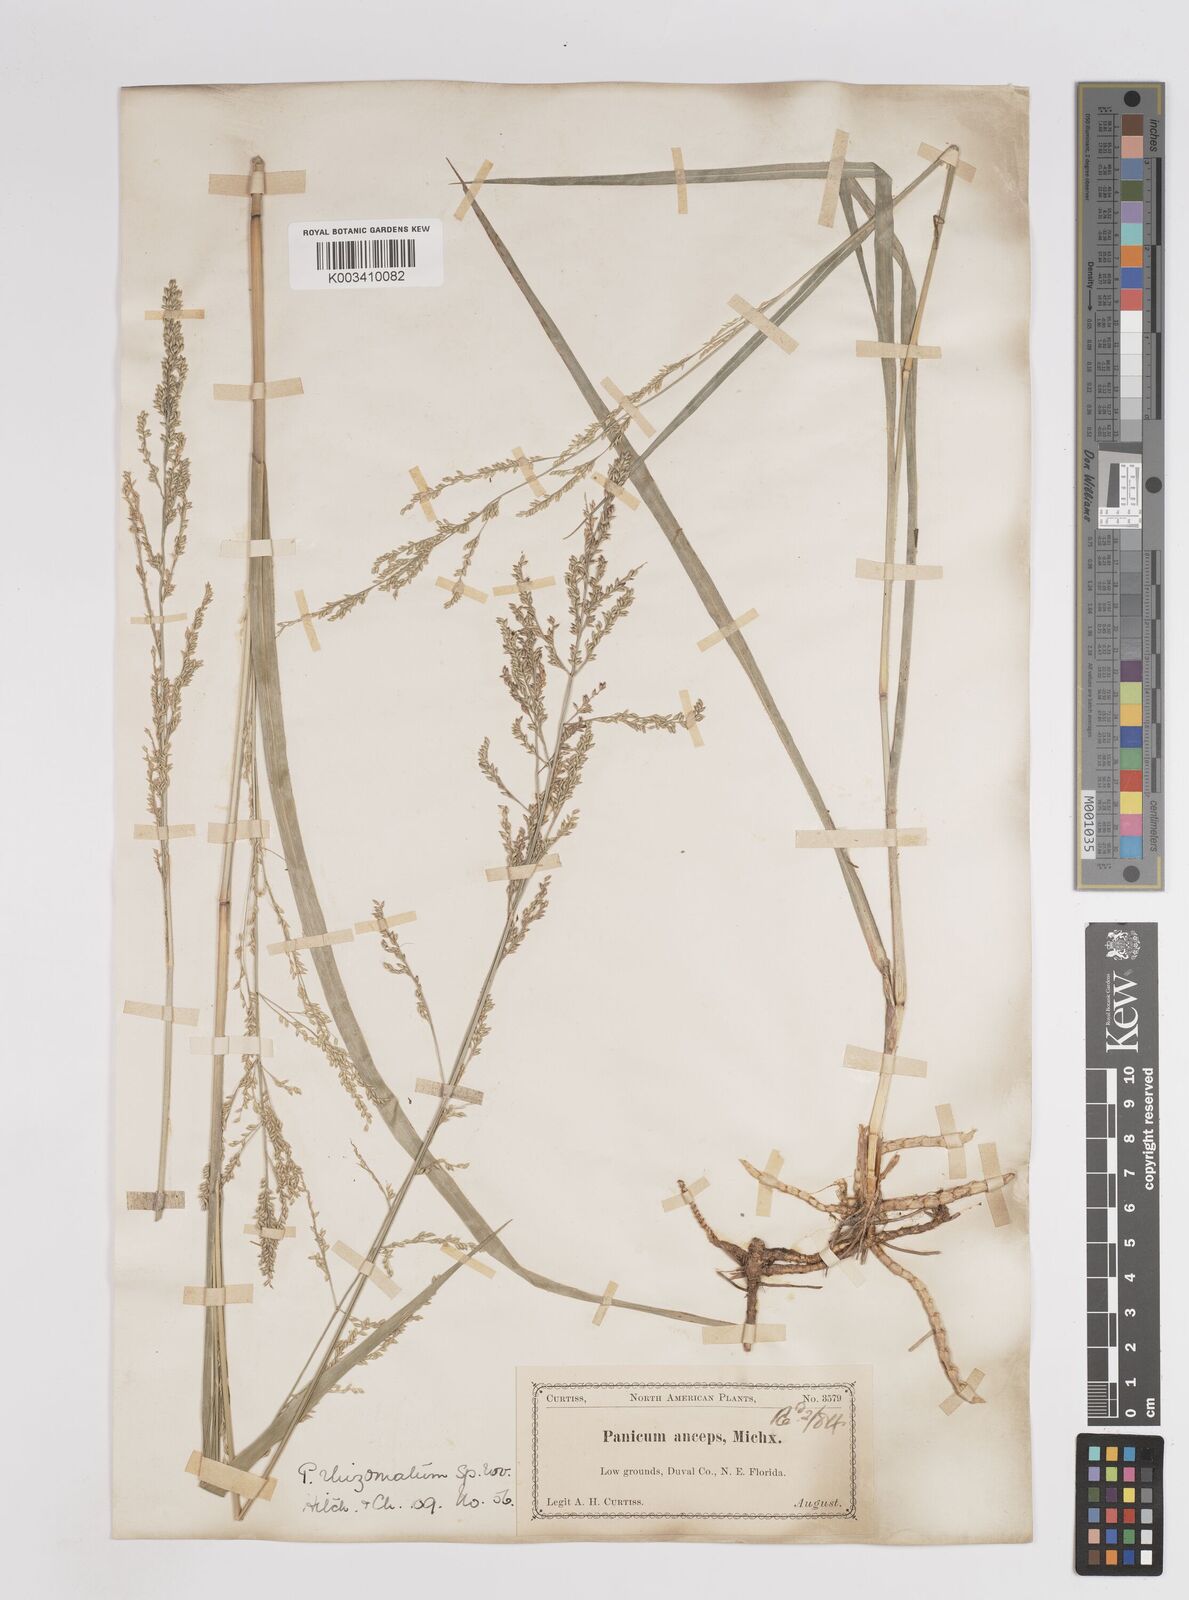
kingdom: Plantae
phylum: Tracheophyta
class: Liliopsida
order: Poales
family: Poaceae
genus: Coleataenia
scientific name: Coleataenia anceps
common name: Beaked panic grass
